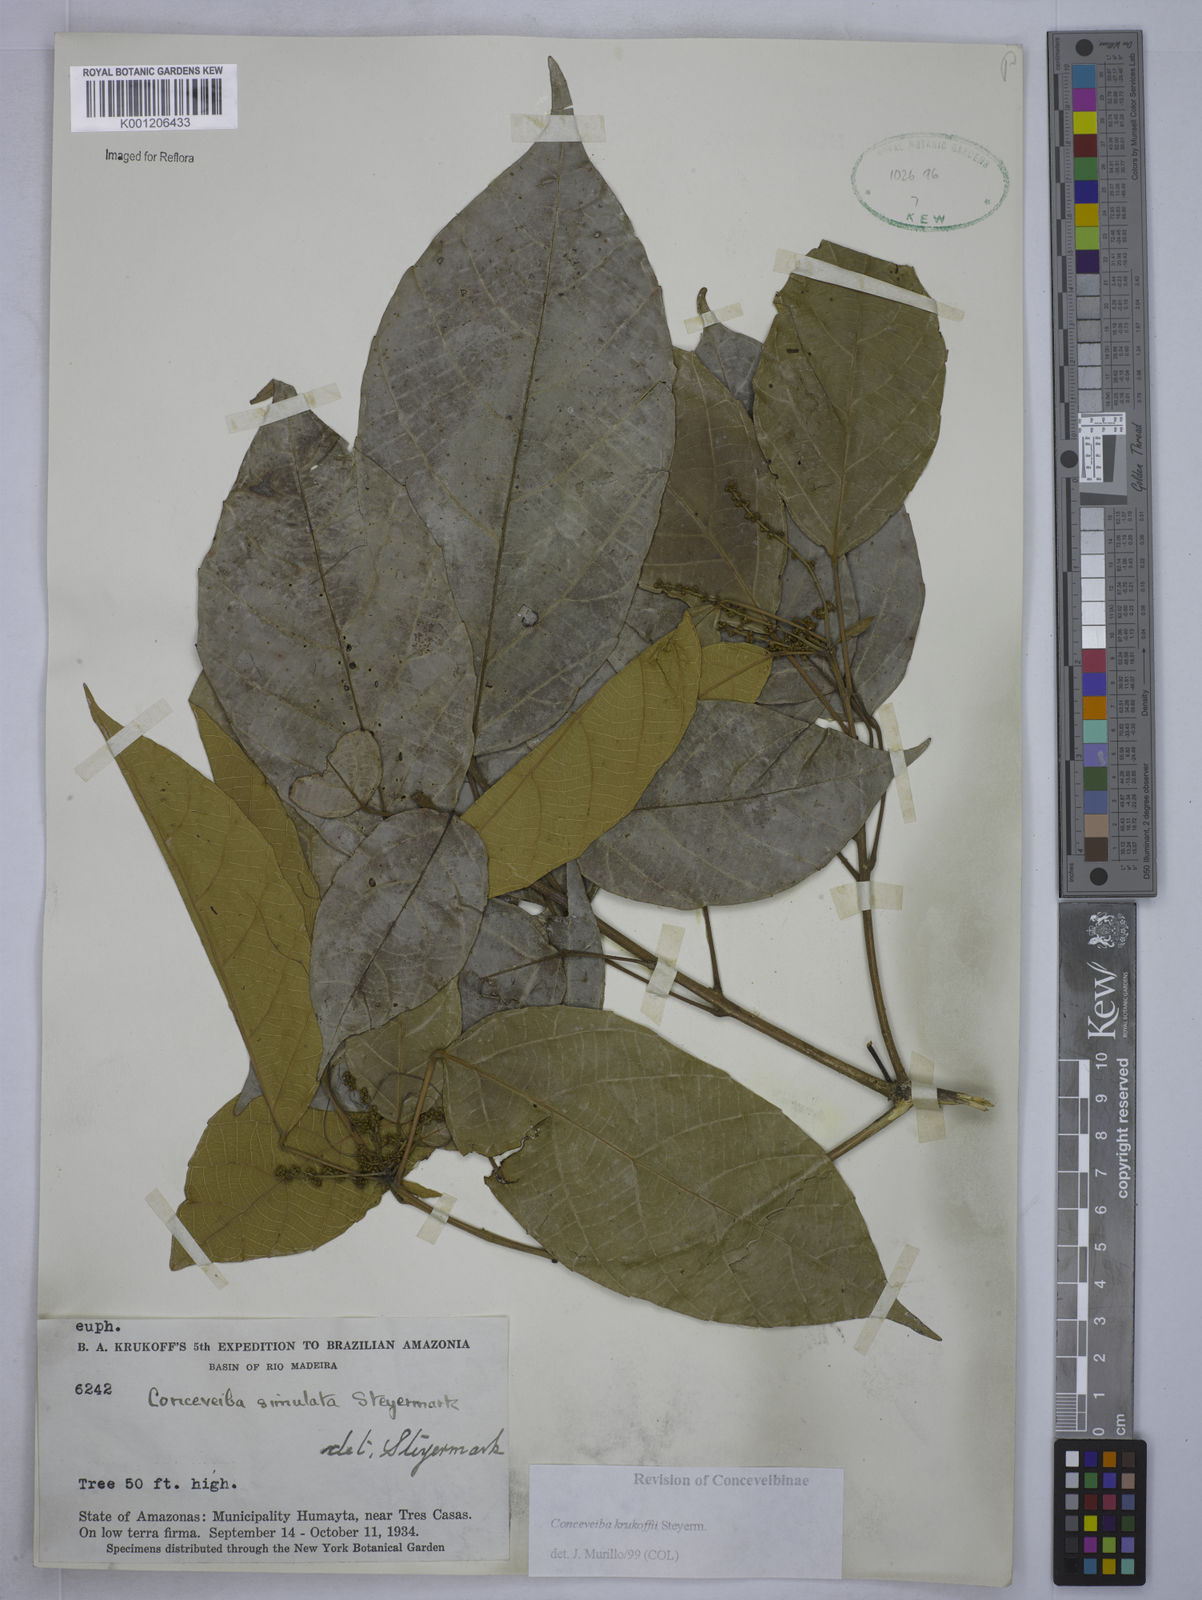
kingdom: Plantae
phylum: Tracheophyta
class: Magnoliopsida
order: Malpighiales
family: Euphorbiaceae
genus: Conceveiba
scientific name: Conceveiba krukoffii
